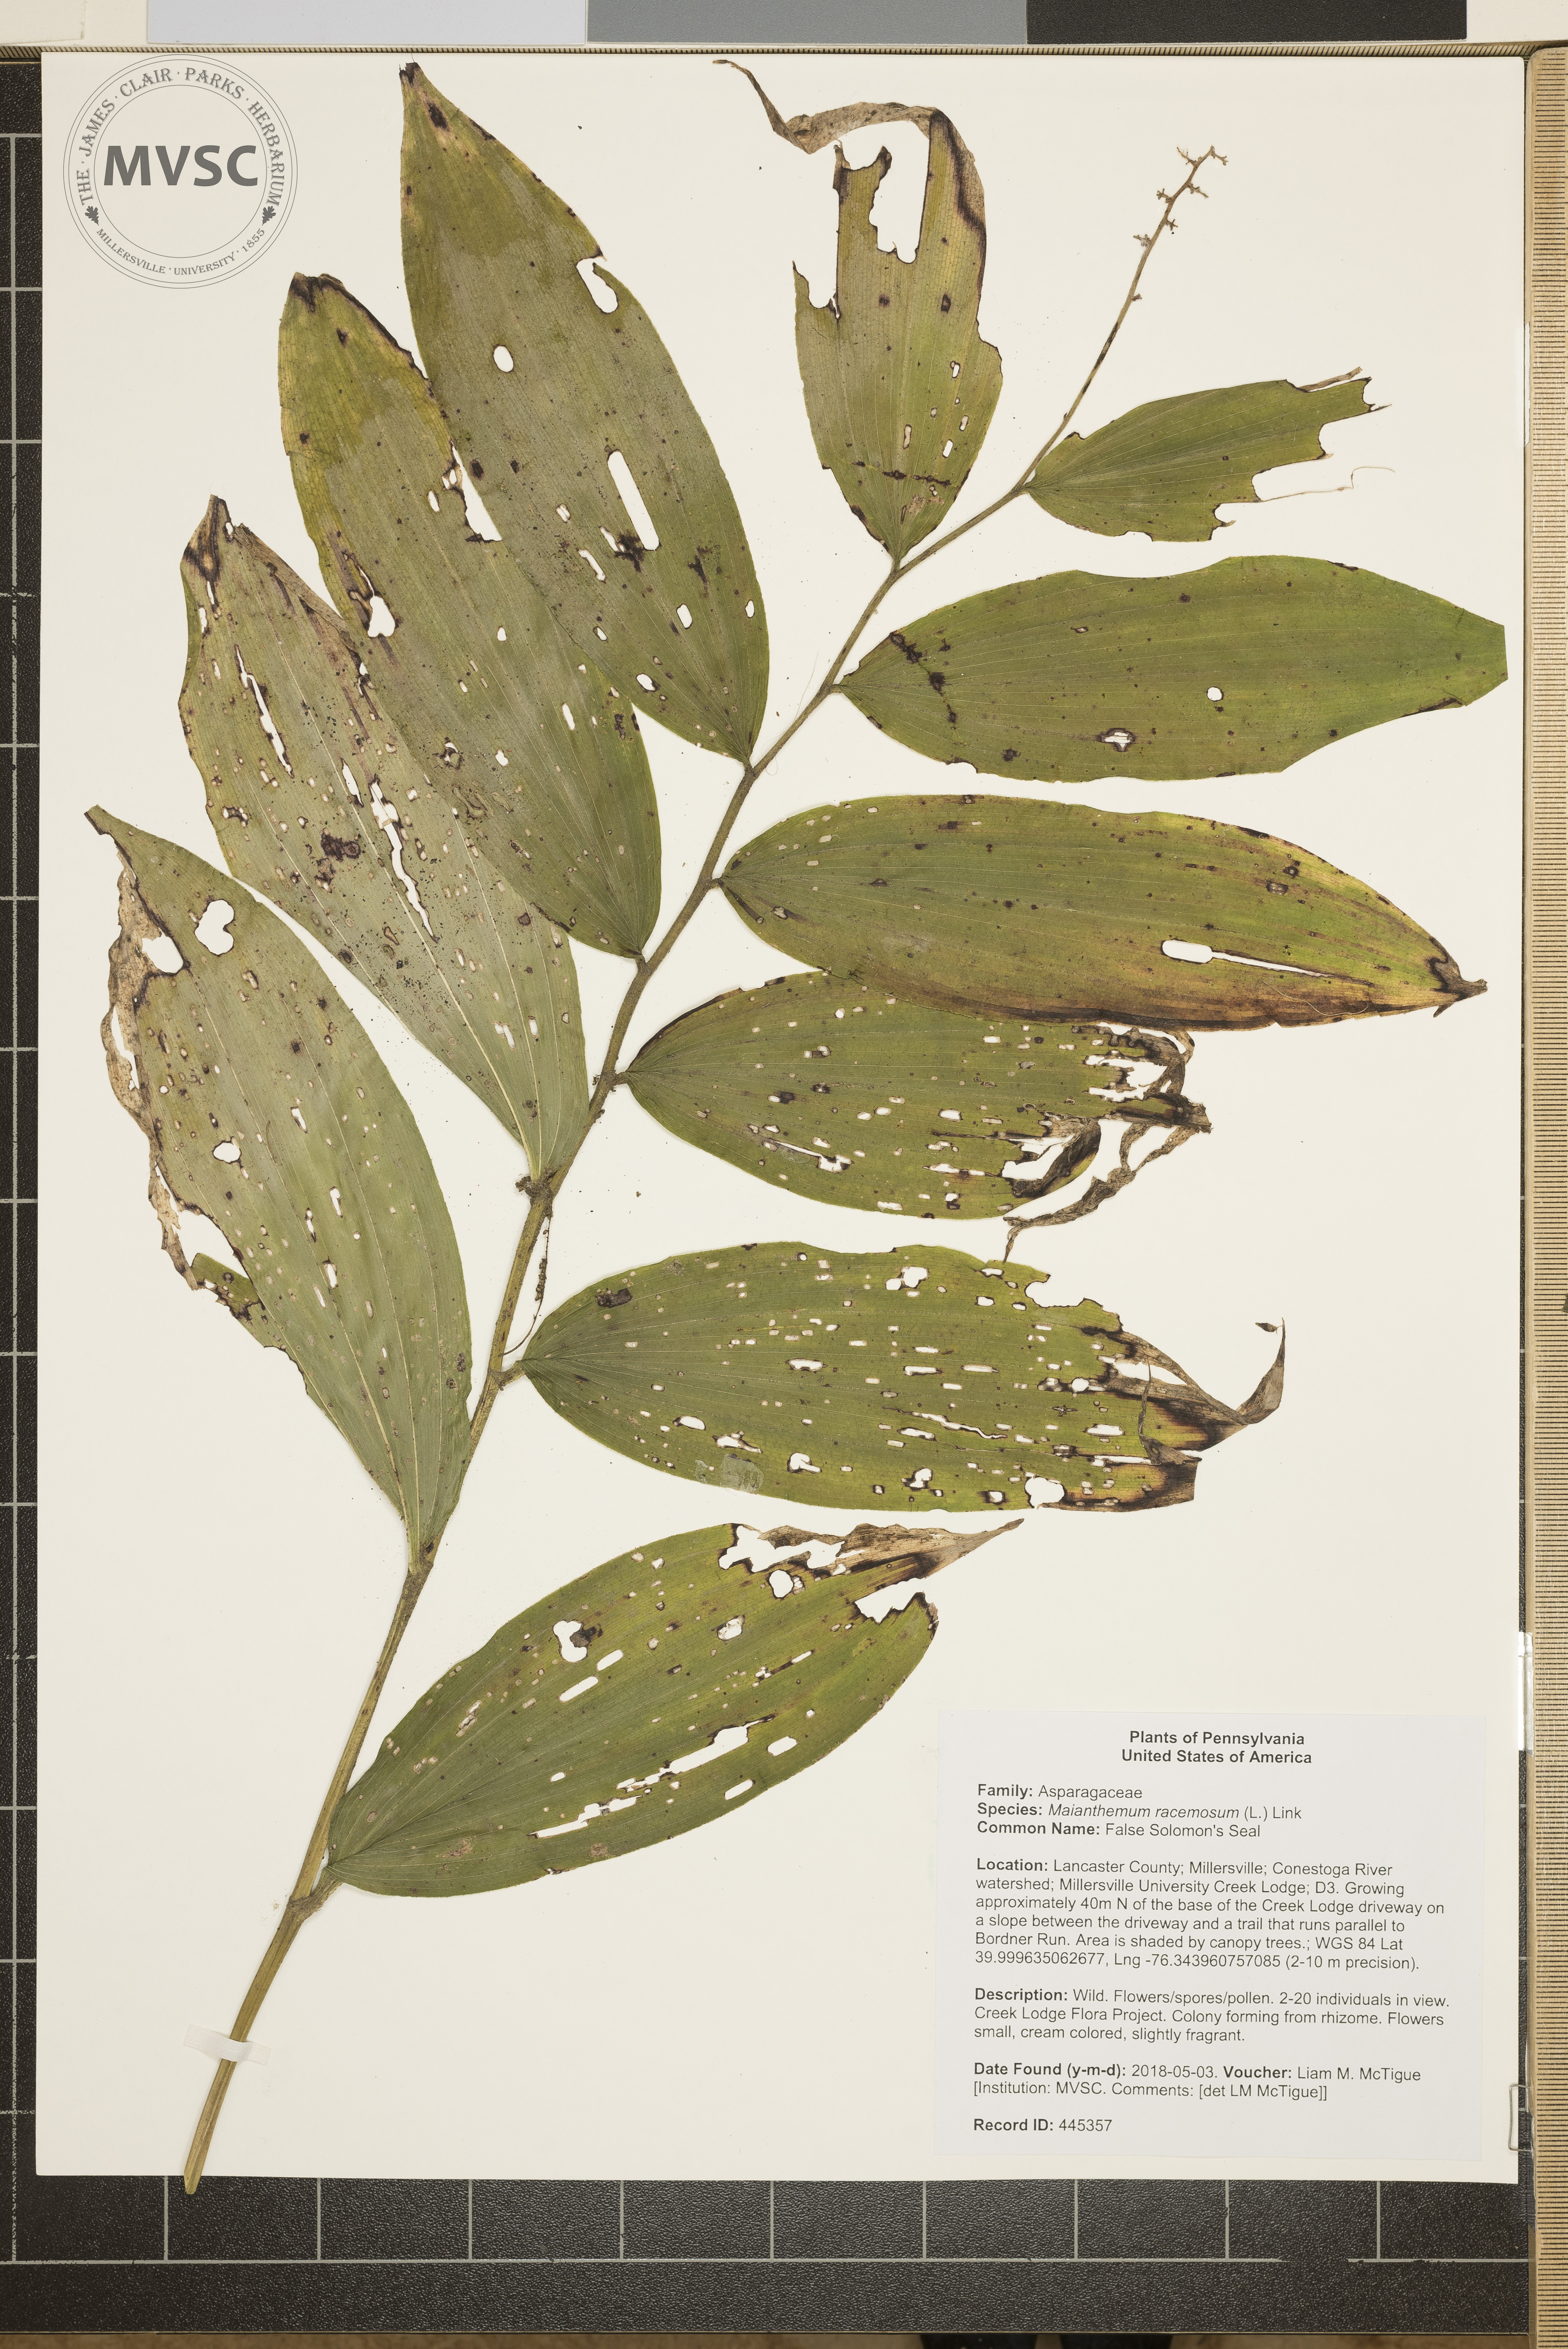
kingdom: Plantae
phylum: Tracheophyta
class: Liliopsida
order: Asparagales
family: Asparagaceae
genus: Maianthemum
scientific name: Maianthemum racemosum
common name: False Solomon's Seal
